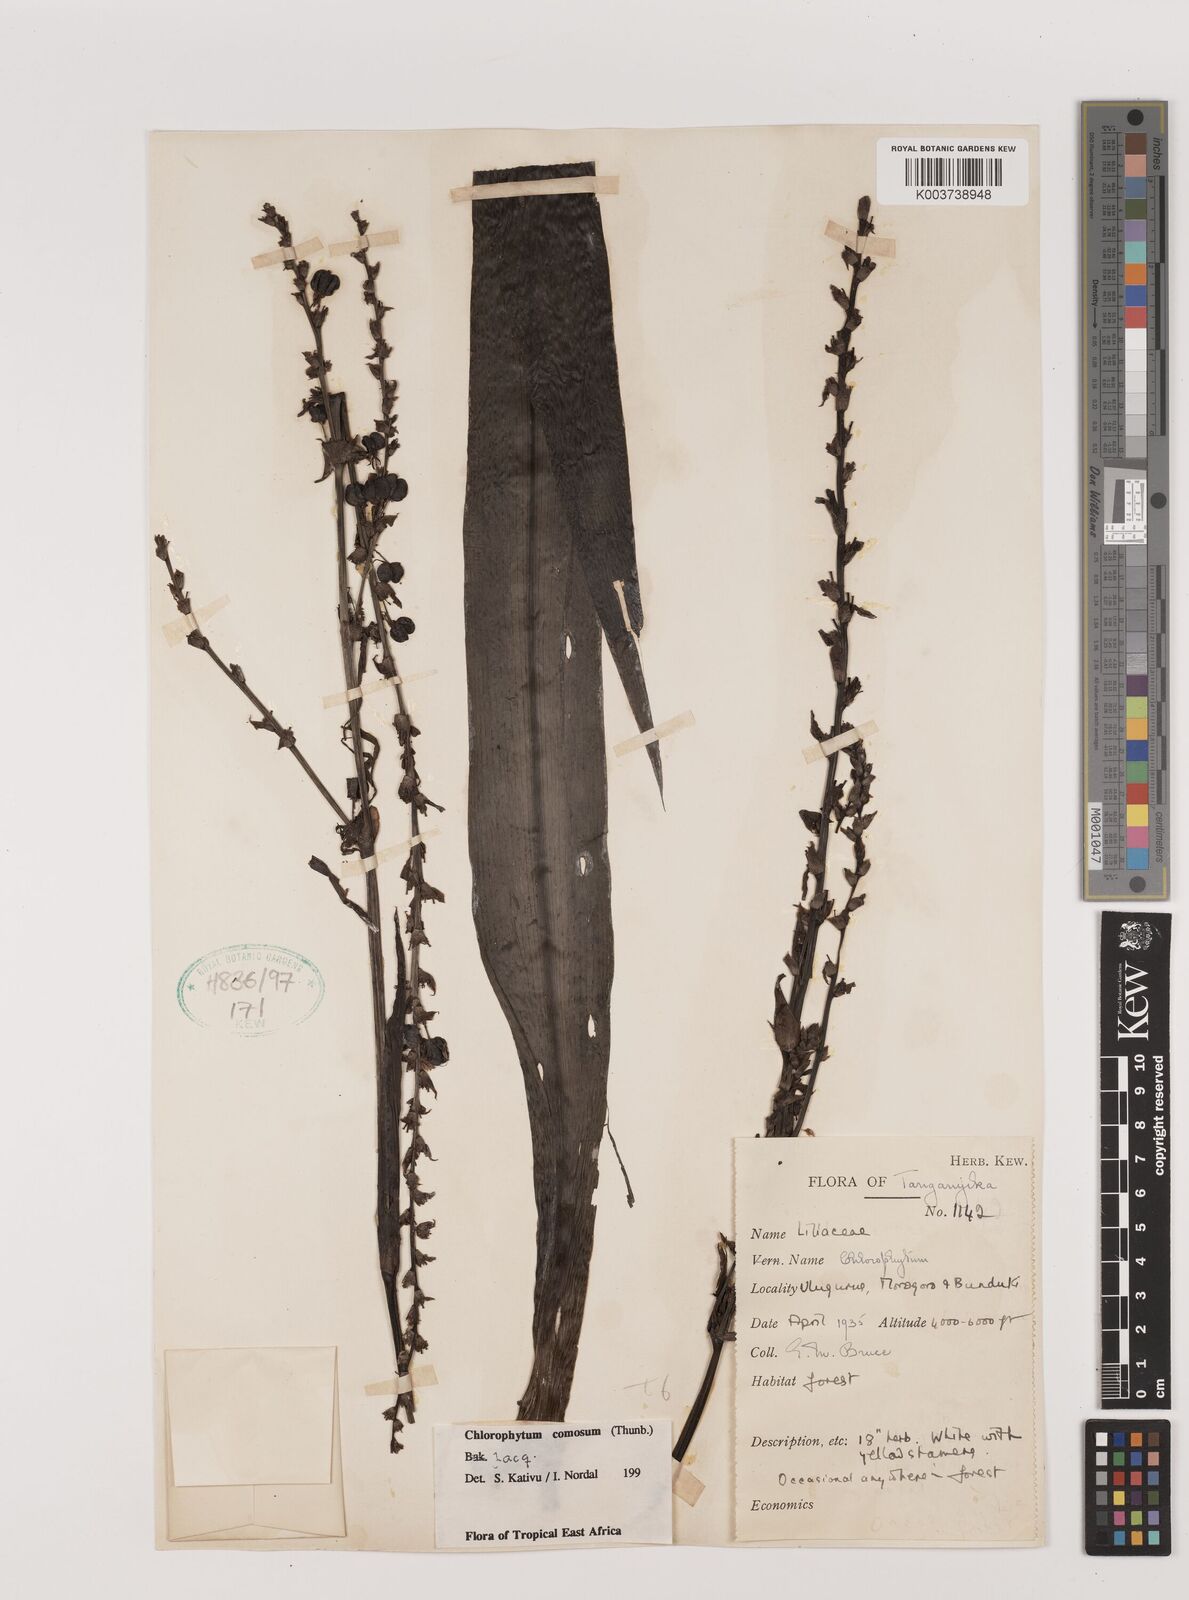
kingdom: Plantae
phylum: Tracheophyta
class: Liliopsida
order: Asparagales
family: Asparagaceae
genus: Chlorophytum
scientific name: Chlorophytum comosum
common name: Spider plant
